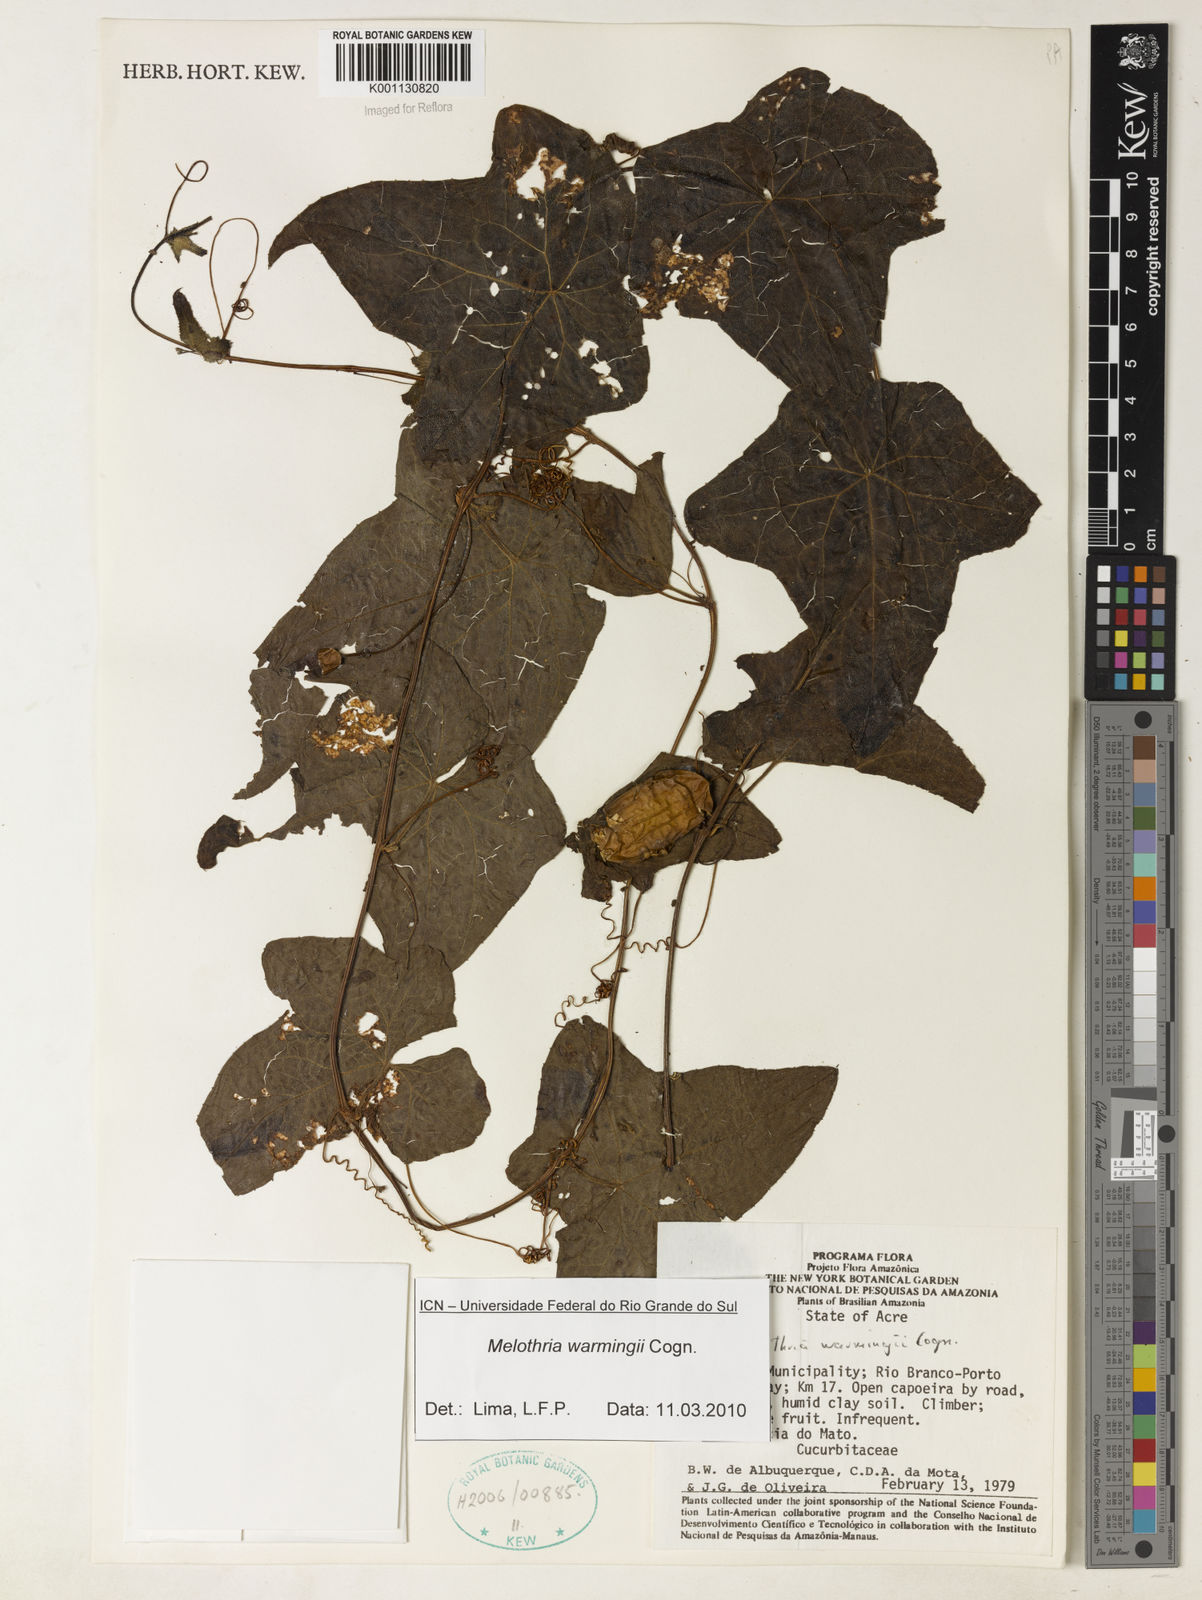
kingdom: Plantae
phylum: Tracheophyta
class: Magnoliopsida
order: Cucurbitales
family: Cucurbitaceae
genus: Melothria
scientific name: Melothria warmingii
